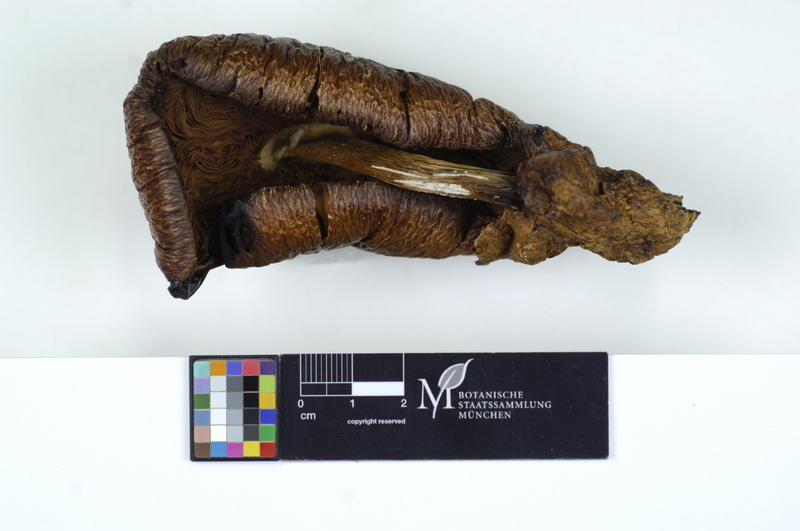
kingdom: Plantae
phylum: Tracheophyta
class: Magnoliopsida
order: Fagales
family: Fagaceae
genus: Fagus
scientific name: Fagus sylvatica
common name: Beech
